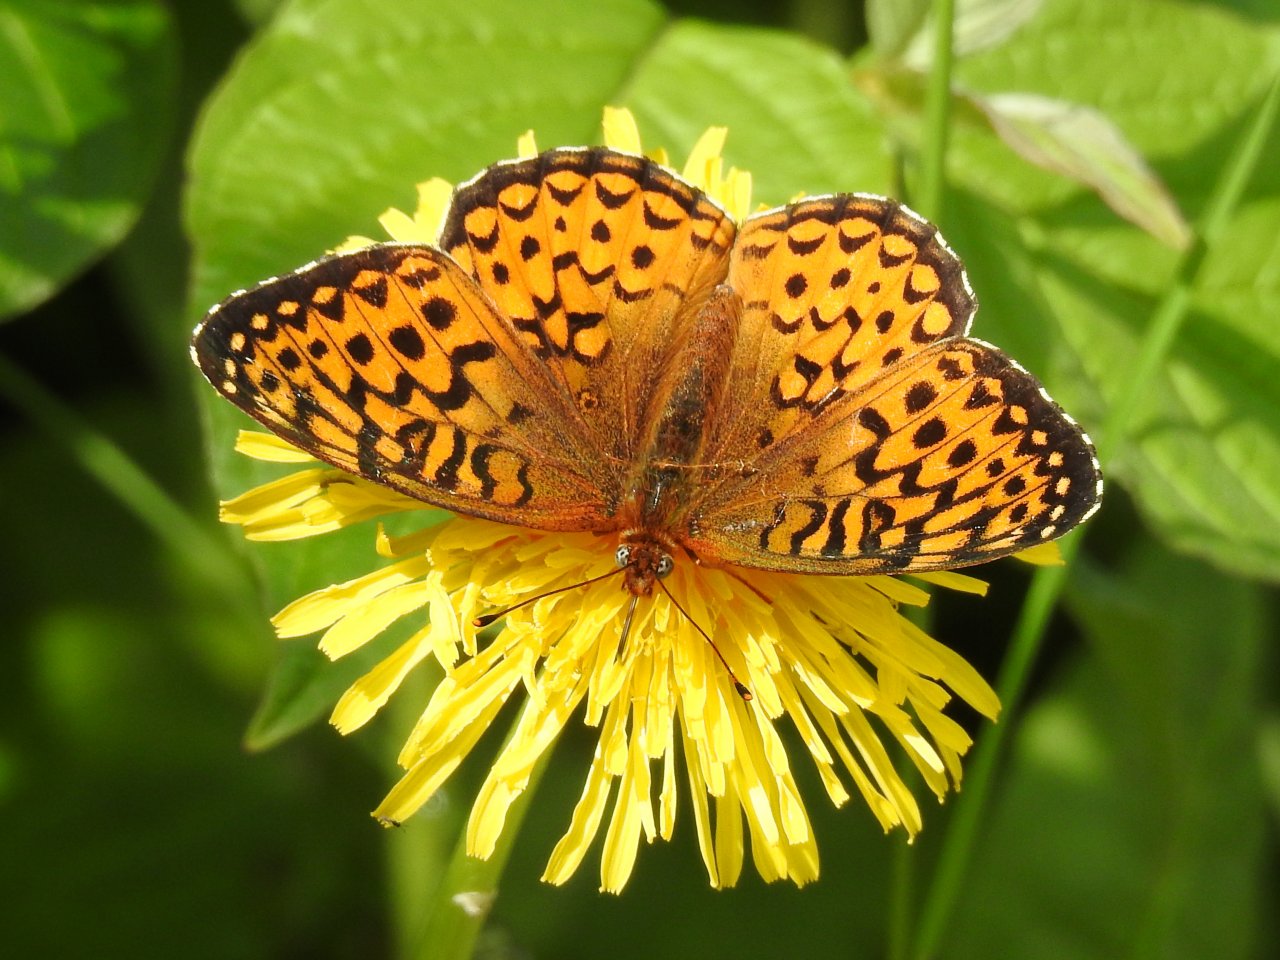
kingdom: Animalia
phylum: Arthropoda
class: Insecta
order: Lepidoptera
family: Nymphalidae
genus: Speyeria
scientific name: Speyeria atlantis
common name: Atlantis Fritillary
